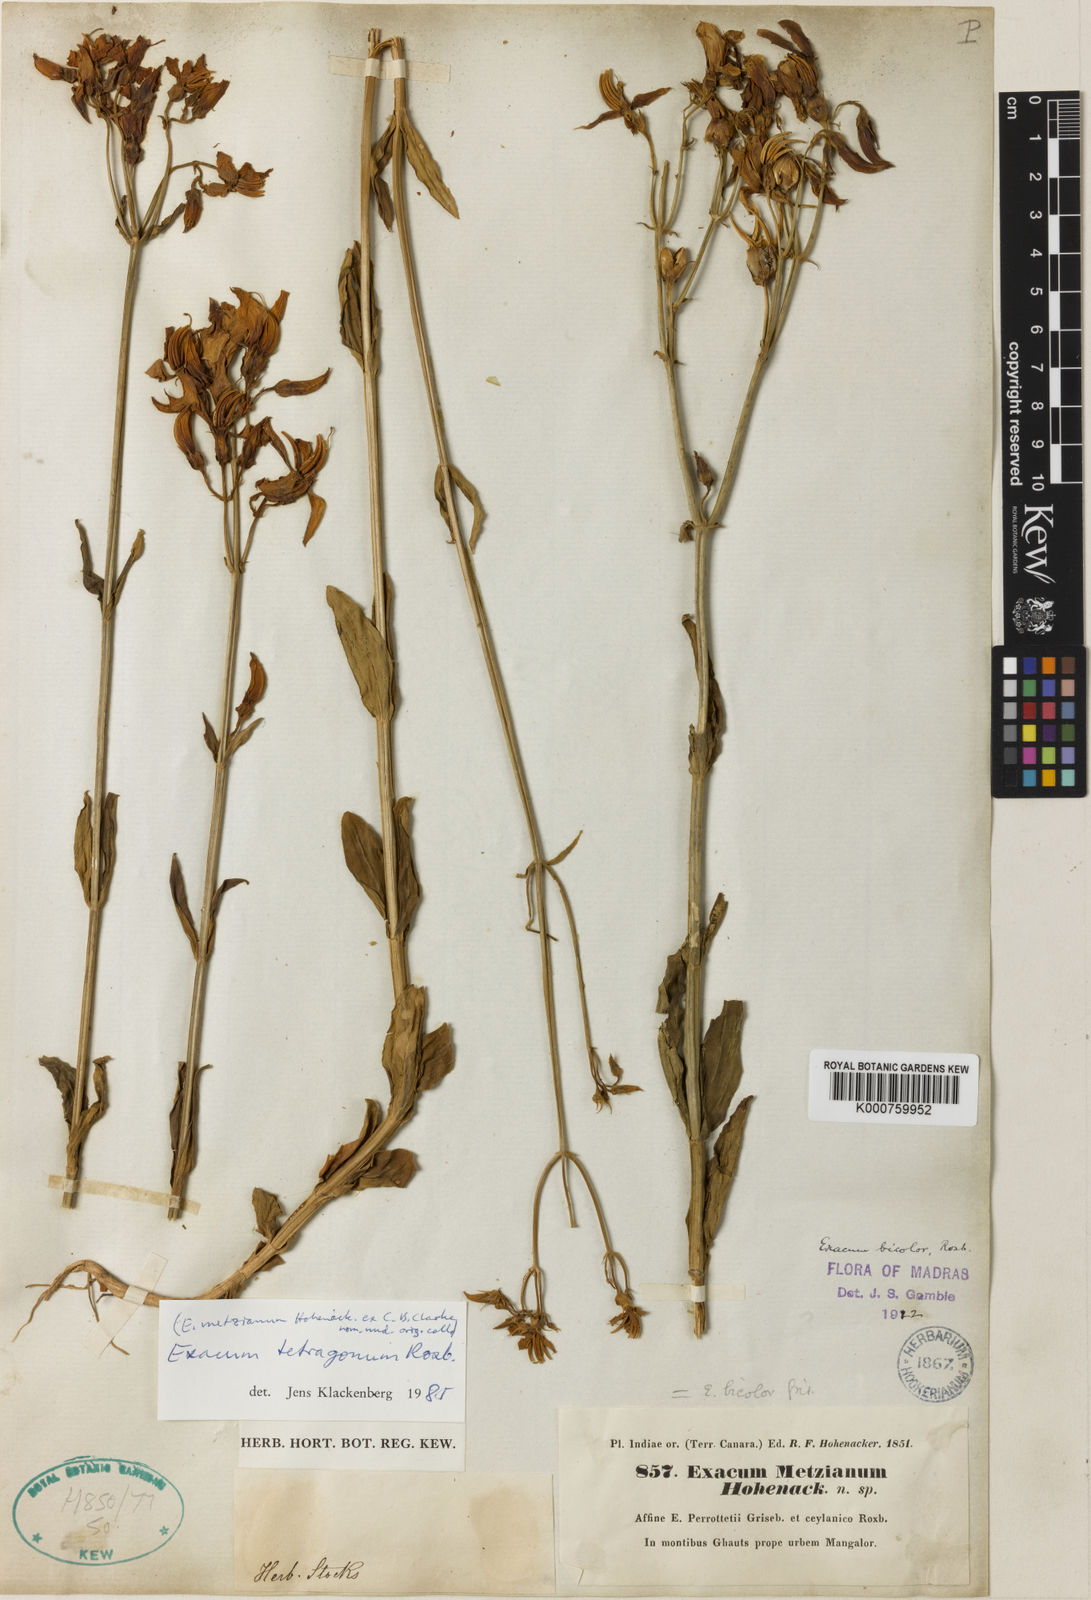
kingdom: Plantae
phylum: Tracheophyta
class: Magnoliopsida
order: Gentianales
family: Gentianaceae
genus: Exacum
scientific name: Exacum tetragonum
